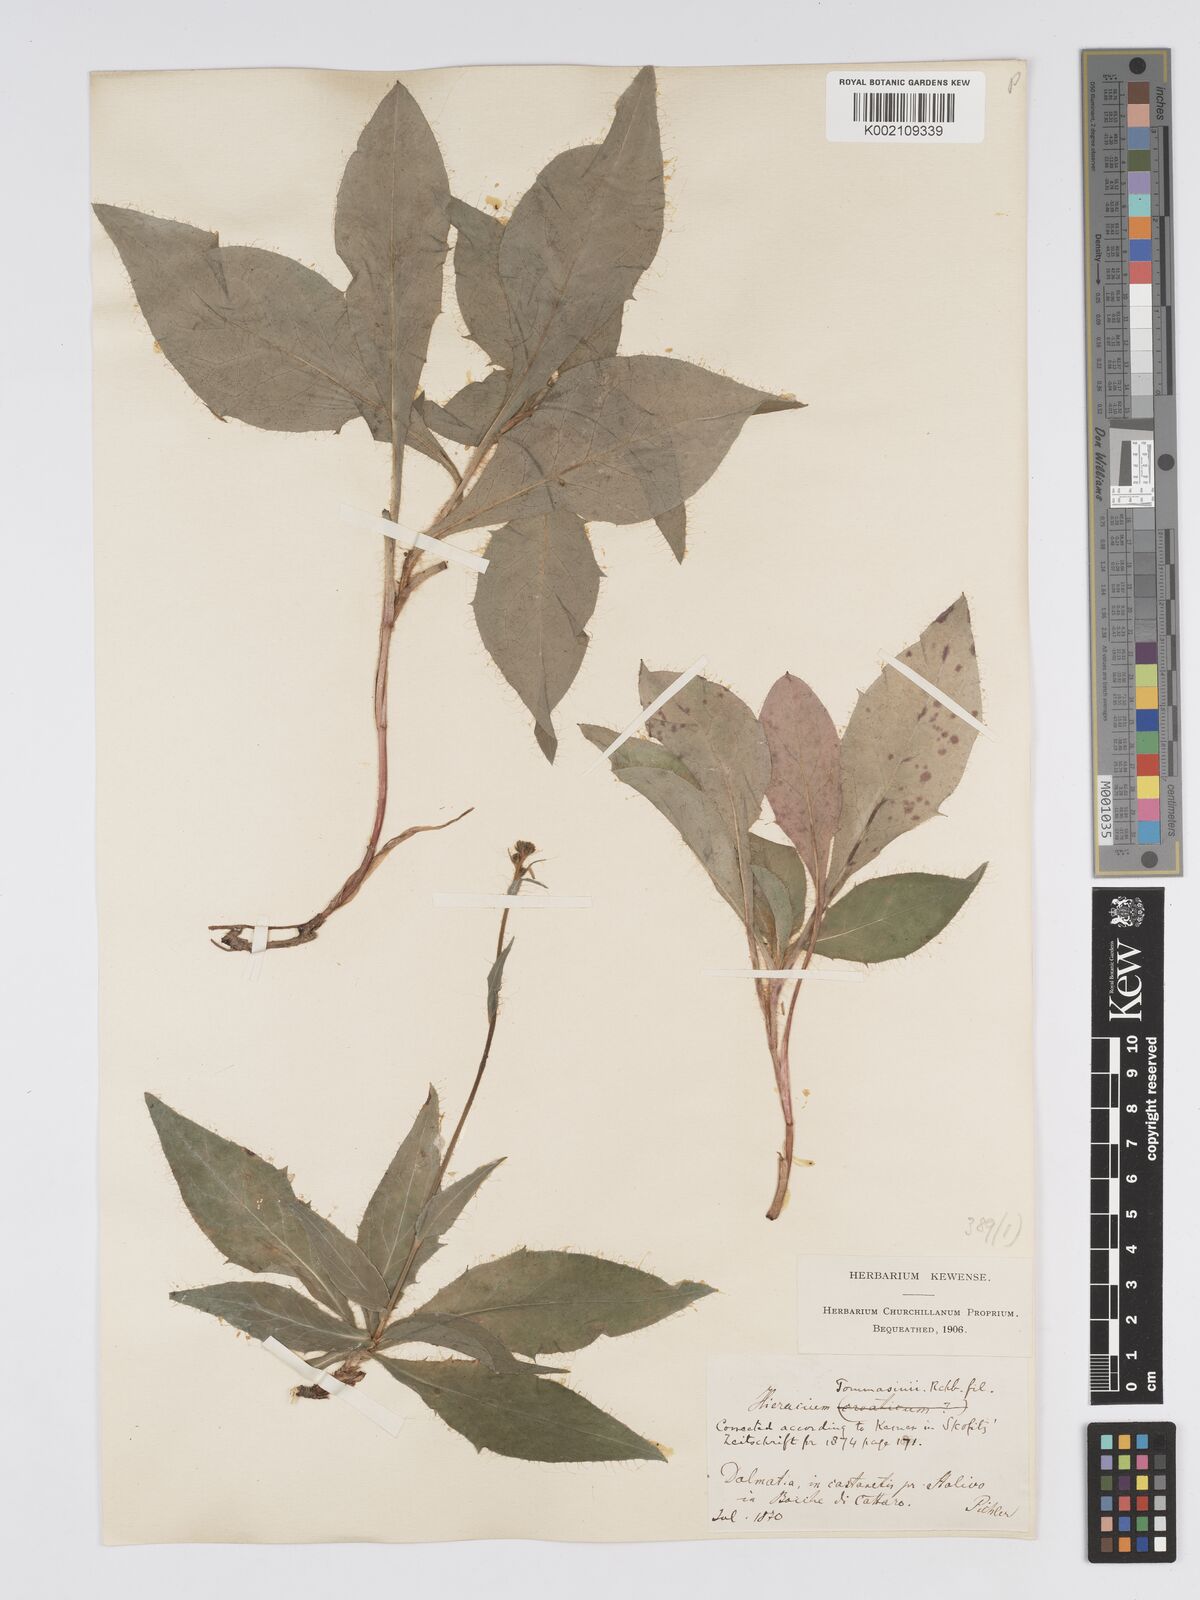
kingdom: Plantae
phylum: Tracheophyta
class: Magnoliopsida
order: Asterales
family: Asteraceae
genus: Hieracium
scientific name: Hieracium tommasinianum
